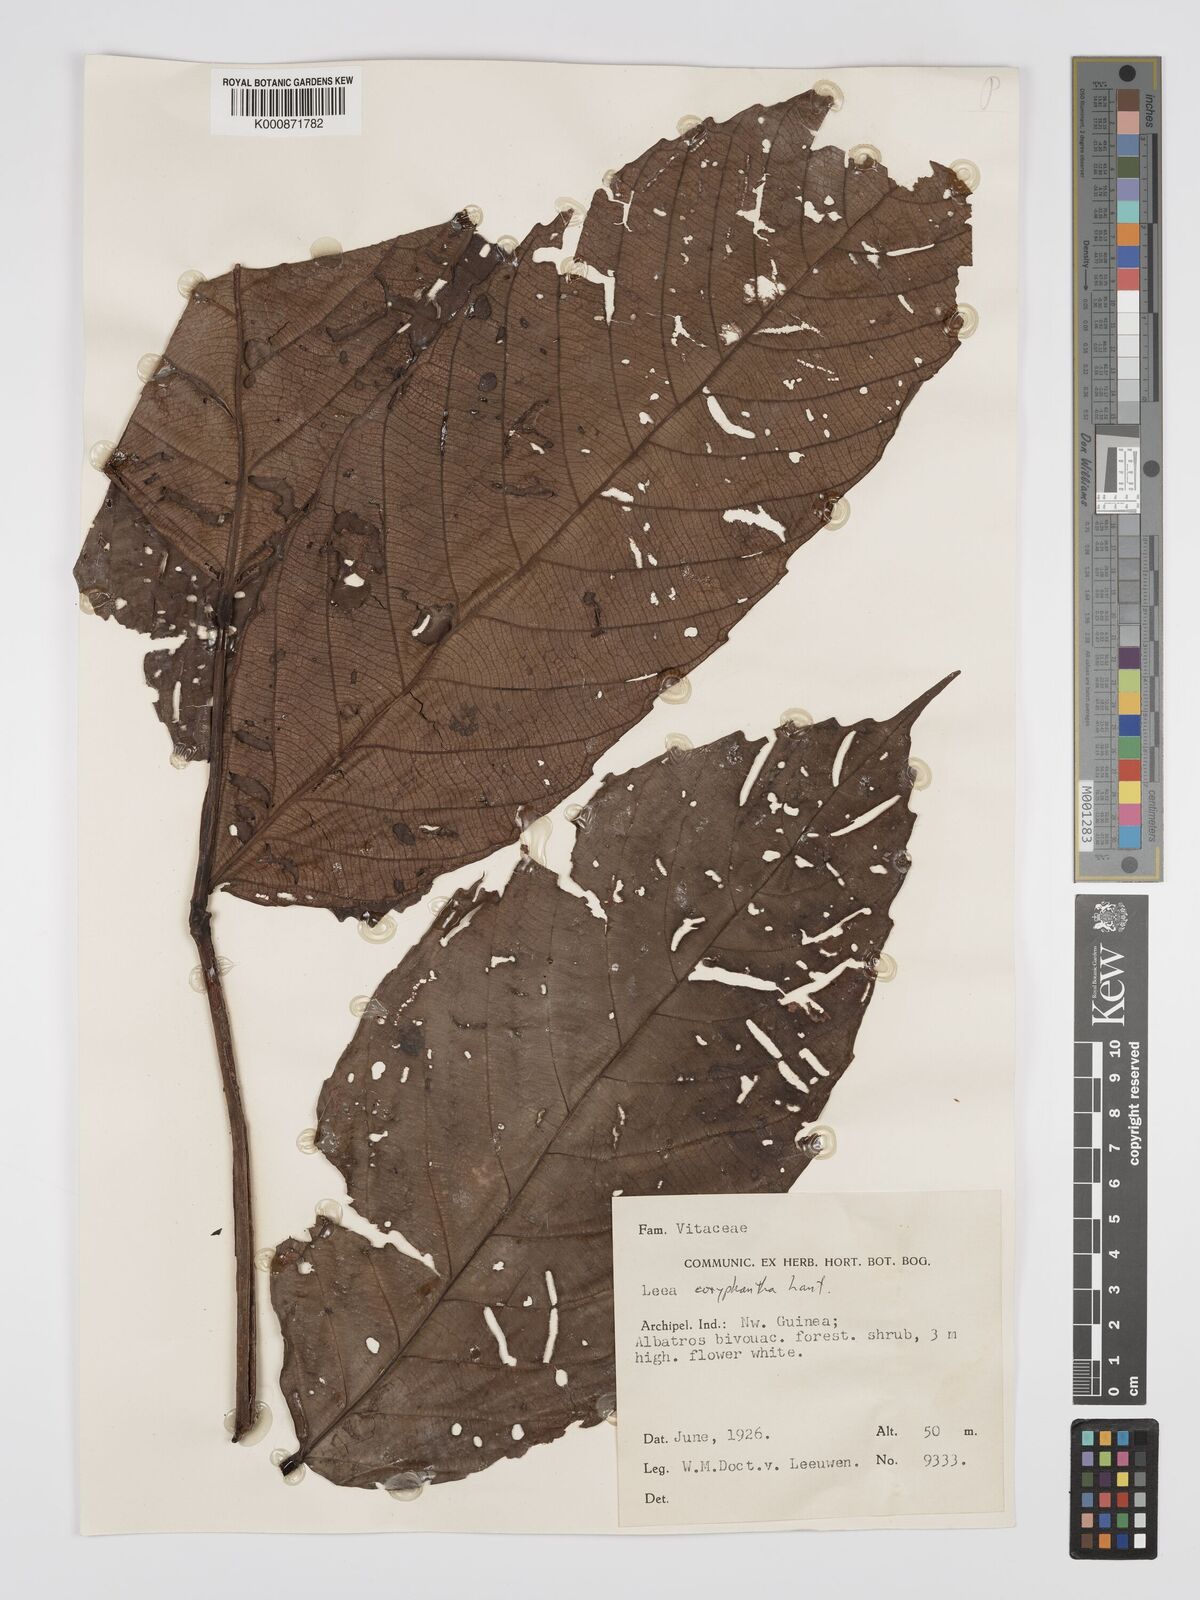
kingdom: Plantae
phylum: Tracheophyta
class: Magnoliopsida
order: Vitales
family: Vitaceae
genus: Leea
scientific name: Leea coryphantha
